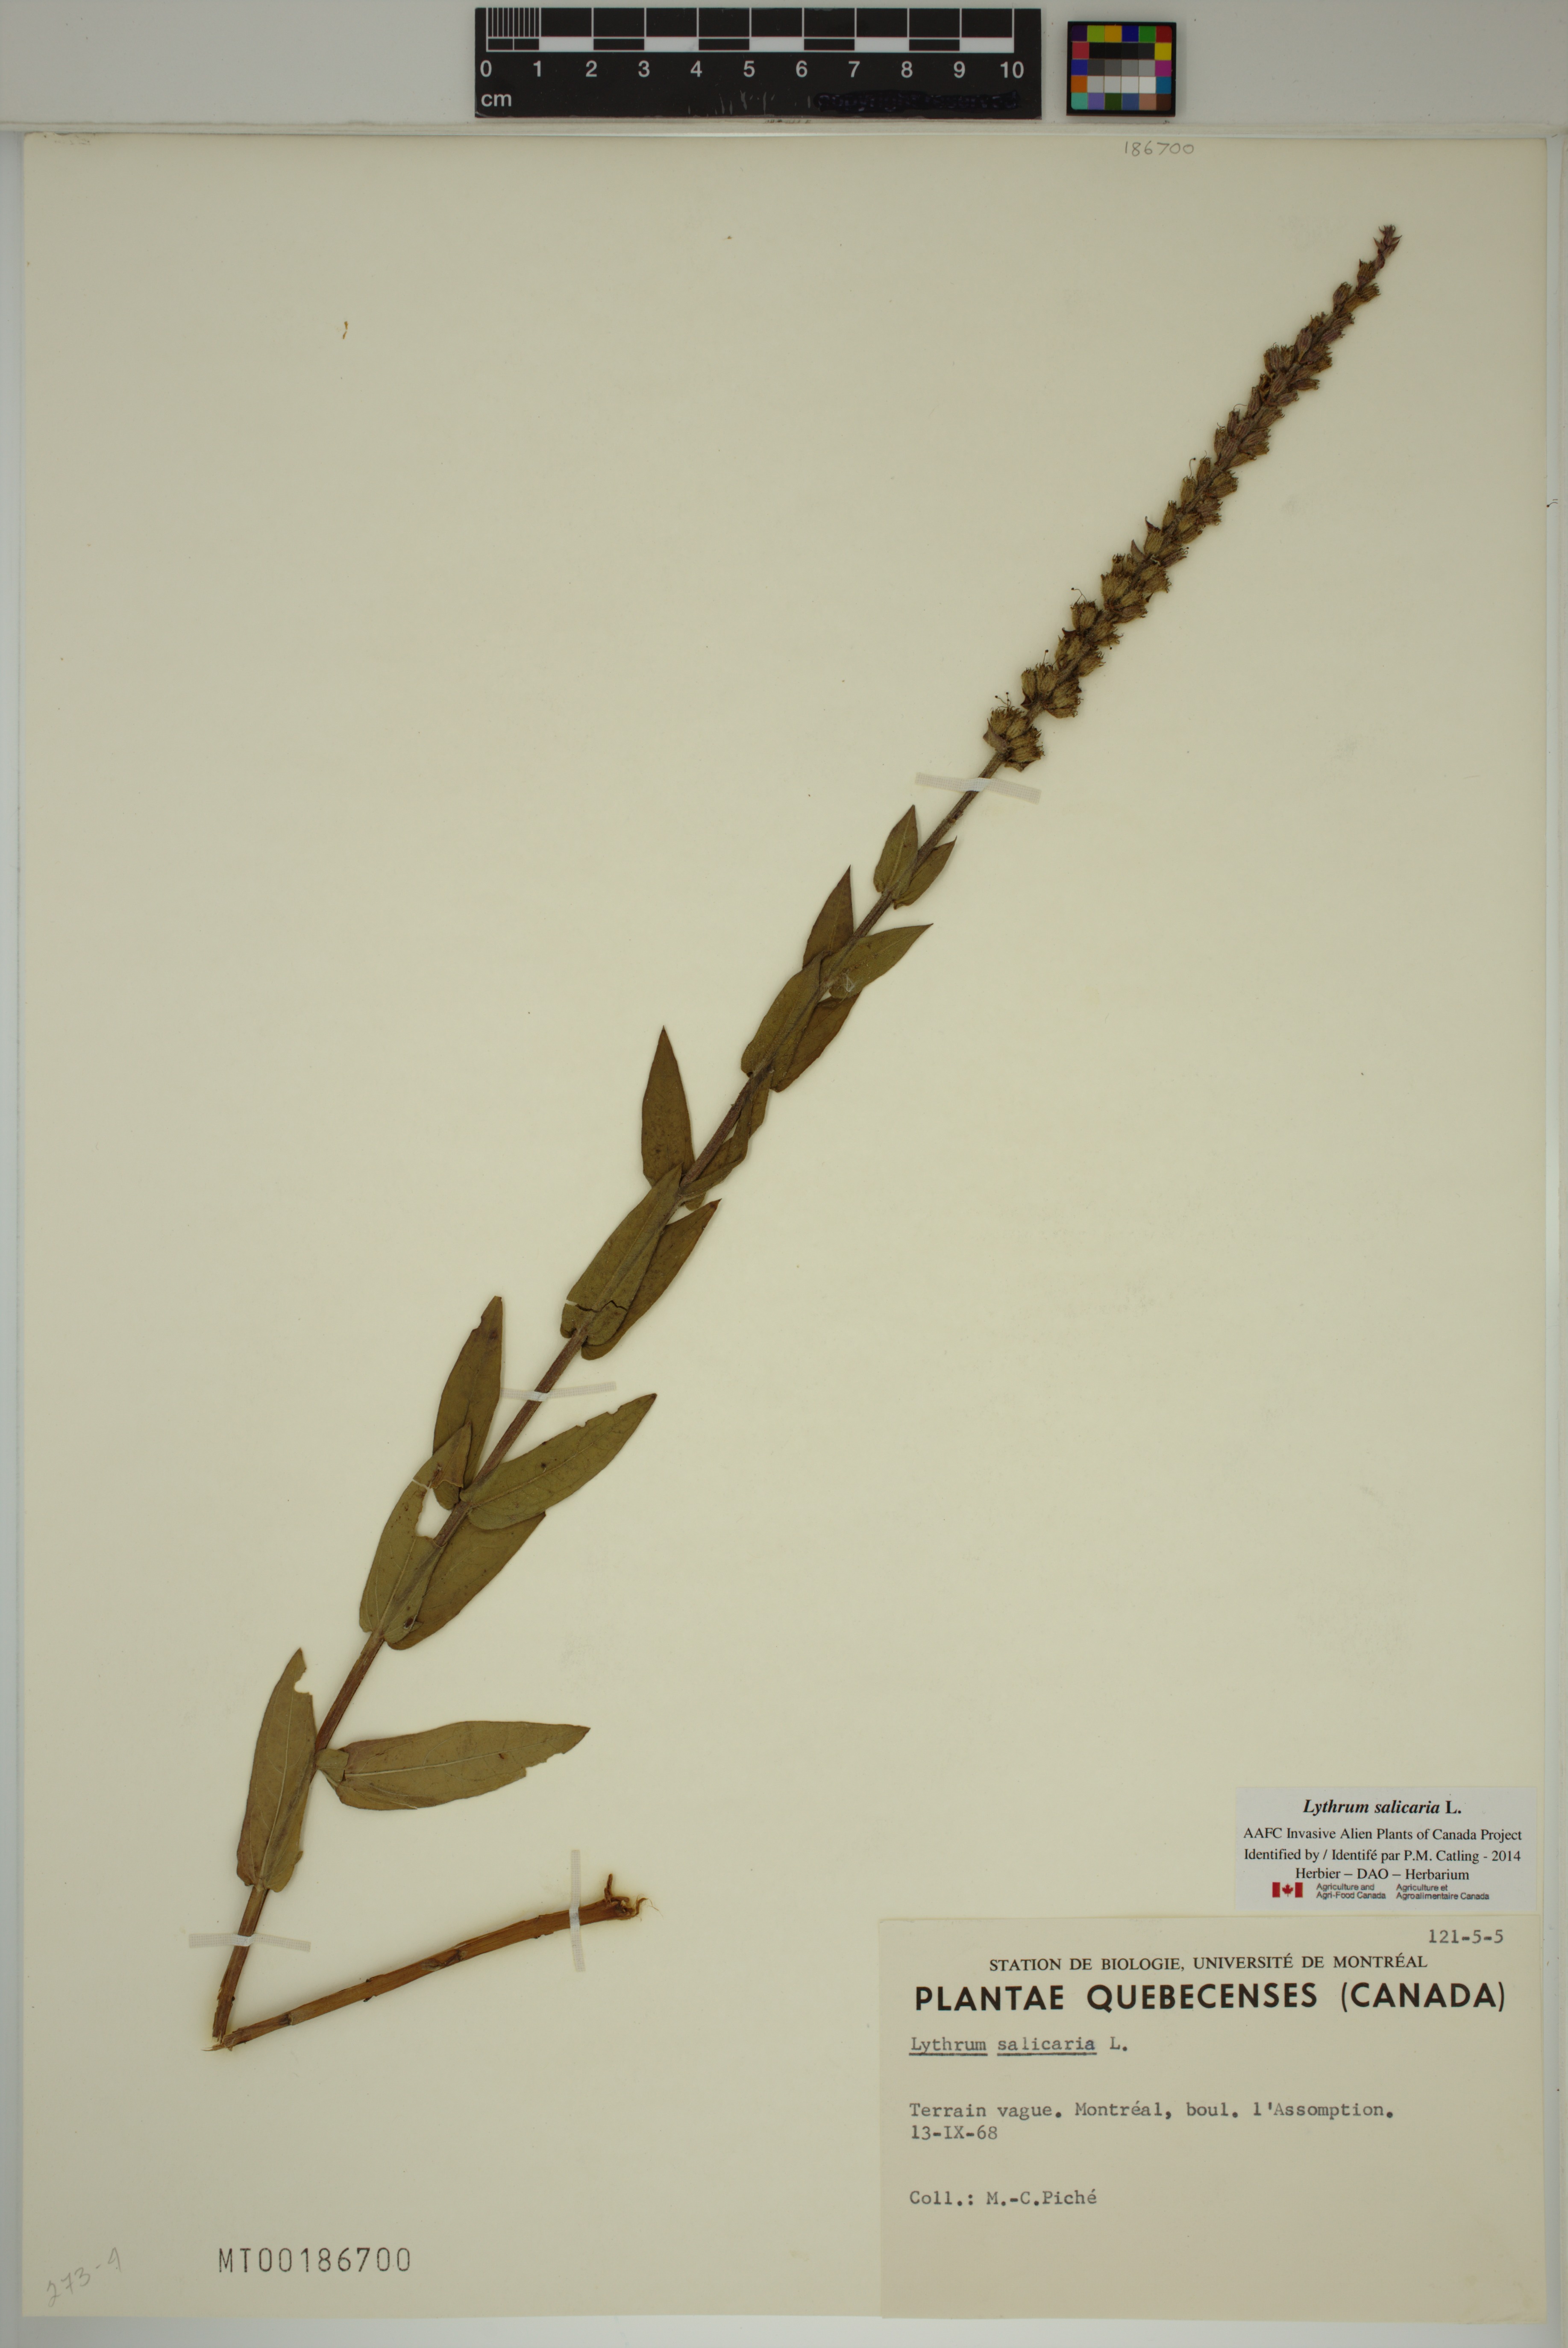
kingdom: Plantae
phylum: Tracheophyta
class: Magnoliopsida
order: Myrtales
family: Lythraceae
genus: Lythrum
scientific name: Lythrum salicaria
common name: Purple loosestrife
